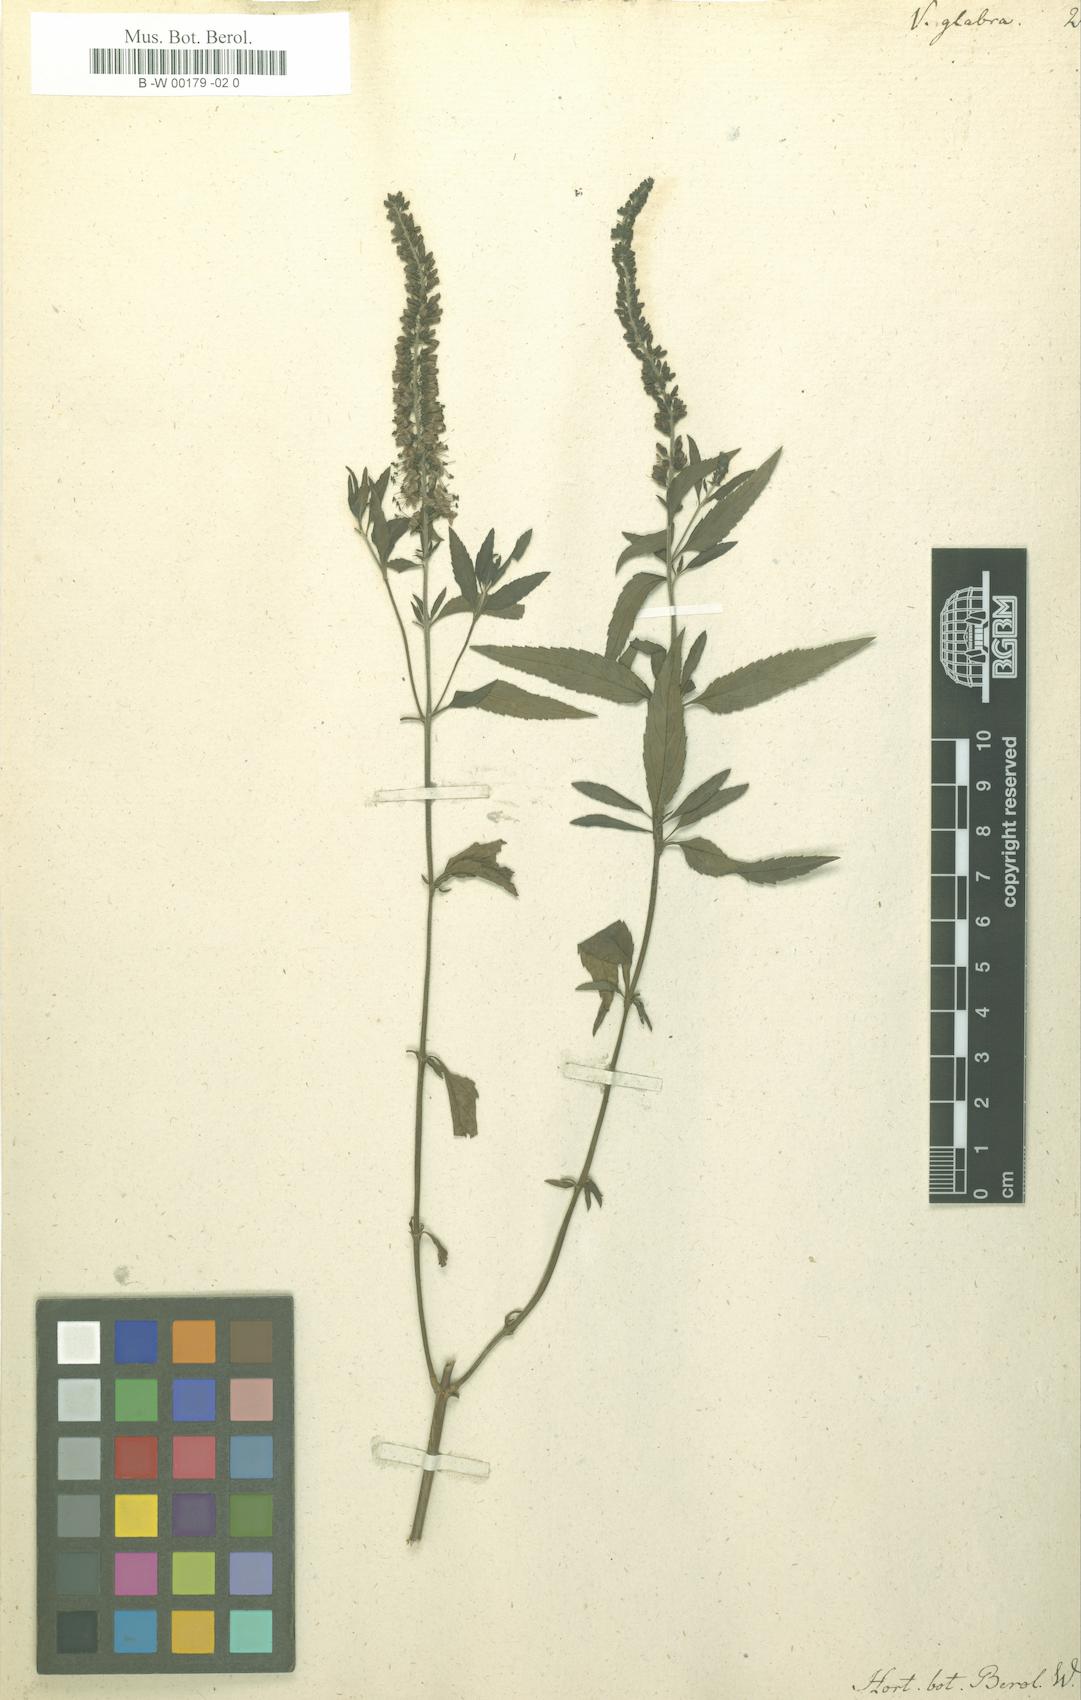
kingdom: Plantae
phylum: Tracheophyta
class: Magnoliopsida
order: Lamiales
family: Plantaginaceae
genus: Veronica
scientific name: Veronica
